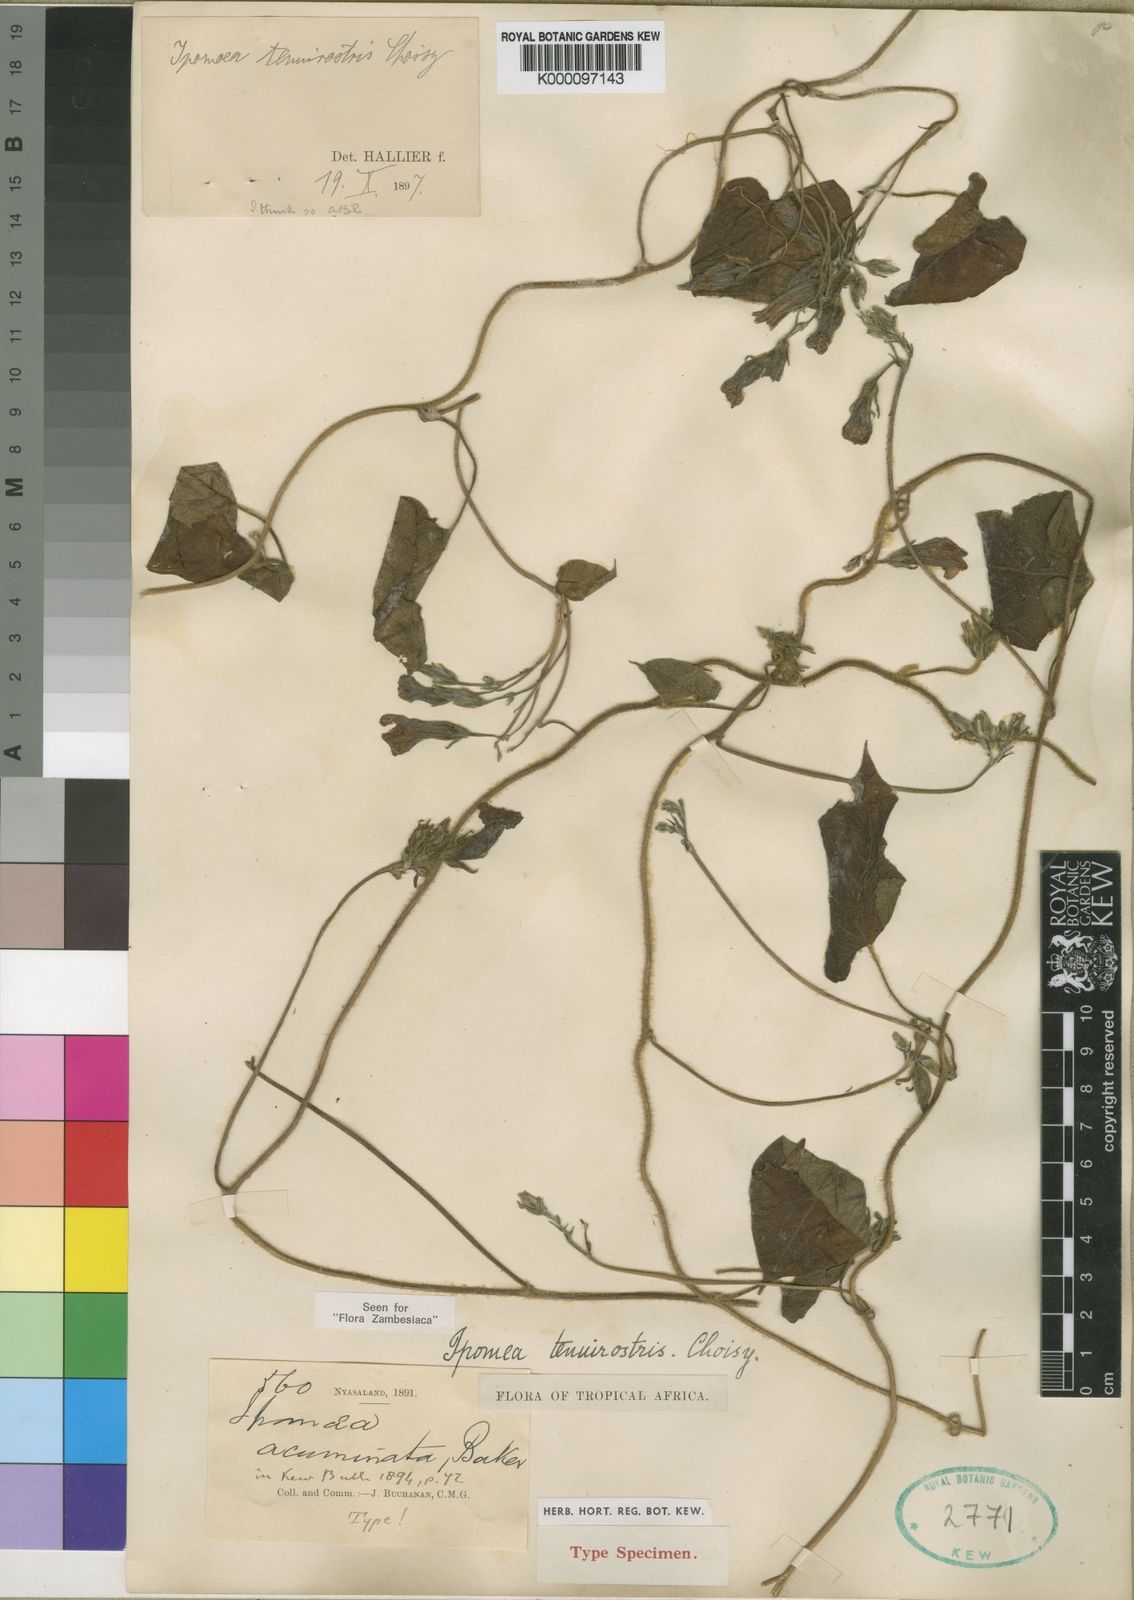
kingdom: Plantae
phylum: Tracheophyta
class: Magnoliopsida
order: Solanales
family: Convolvulaceae
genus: Ipomoea
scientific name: Ipomoea tenuirostris
